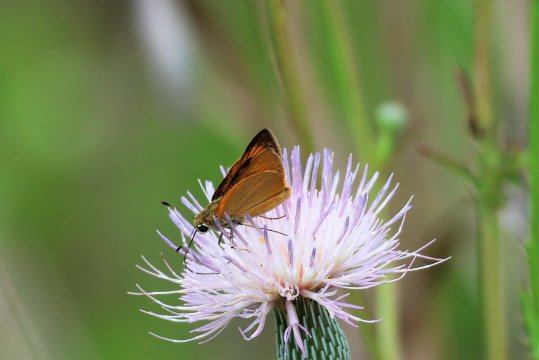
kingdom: Animalia
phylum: Arthropoda
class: Insecta
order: Lepidoptera
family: Hesperiidae
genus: Atrytone
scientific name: Atrytone delaware
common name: Delaware Skipper
